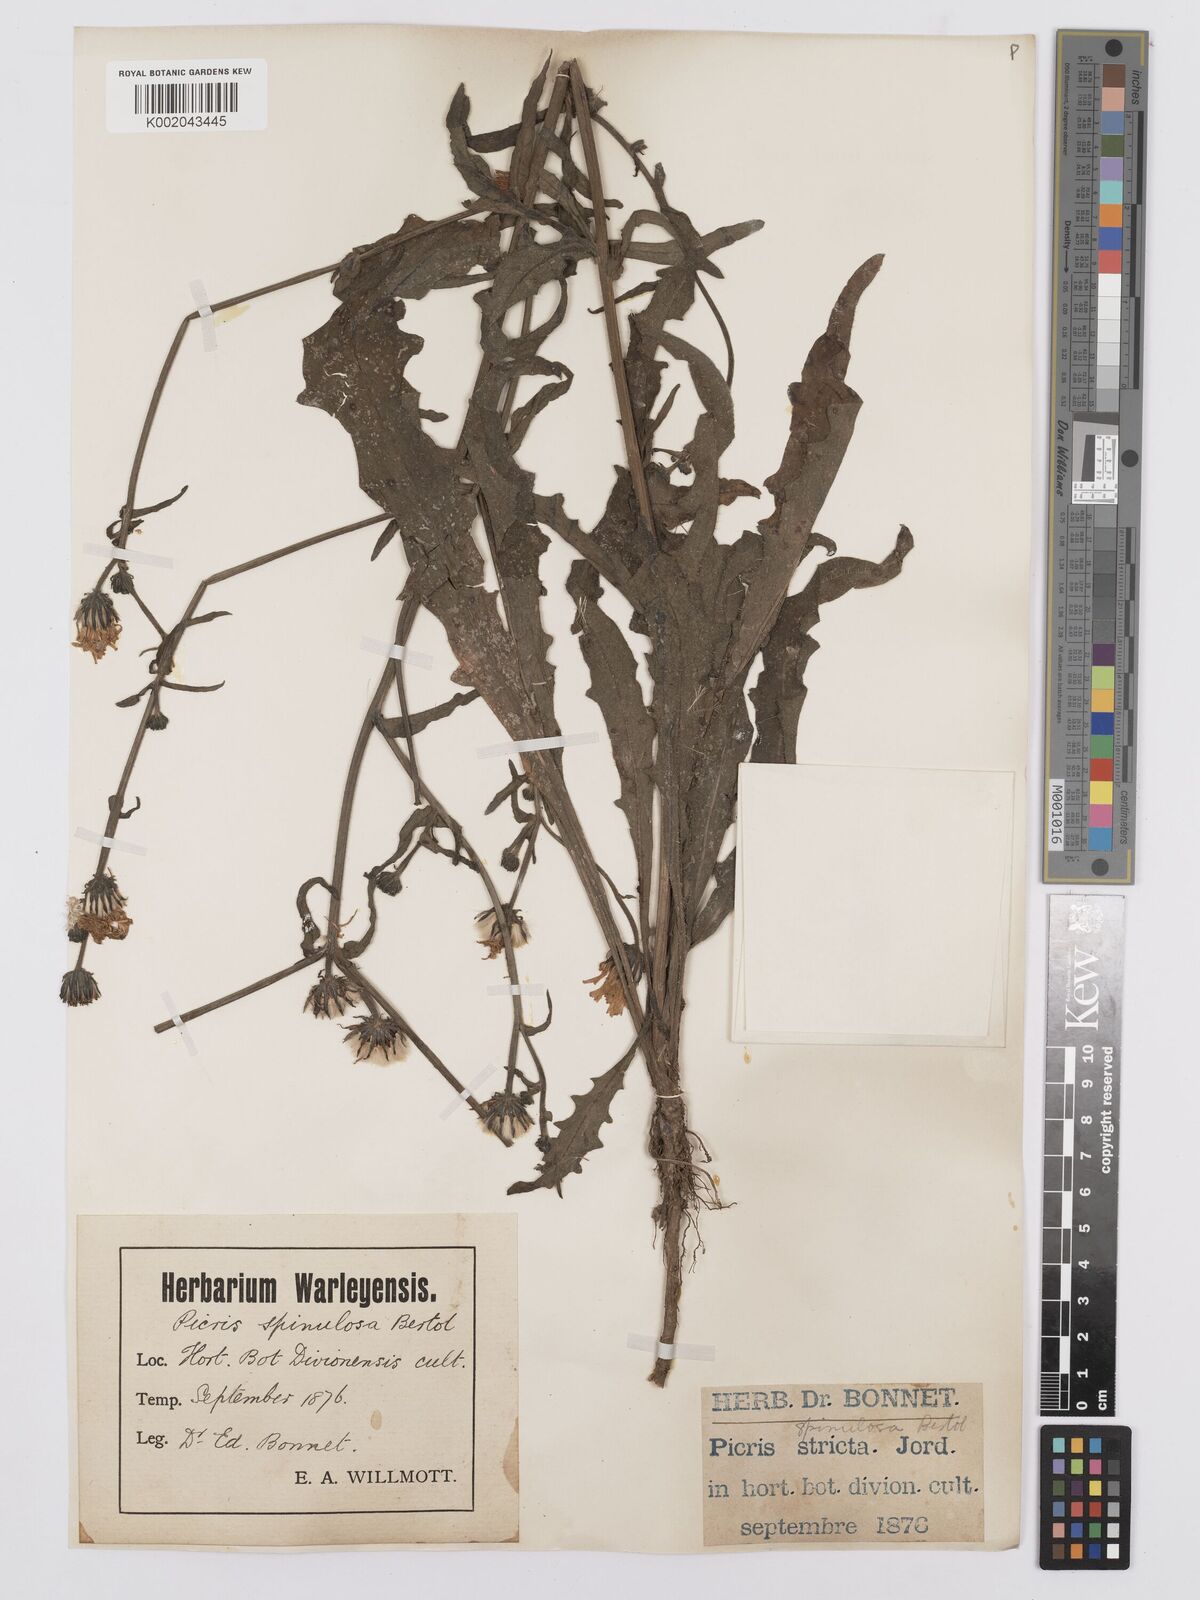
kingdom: Plantae
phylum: Tracheophyta
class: Magnoliopsida
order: Asterales
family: Asteraceae
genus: Picris
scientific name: Picris hieracioides
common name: Hawkweed oxtongue
